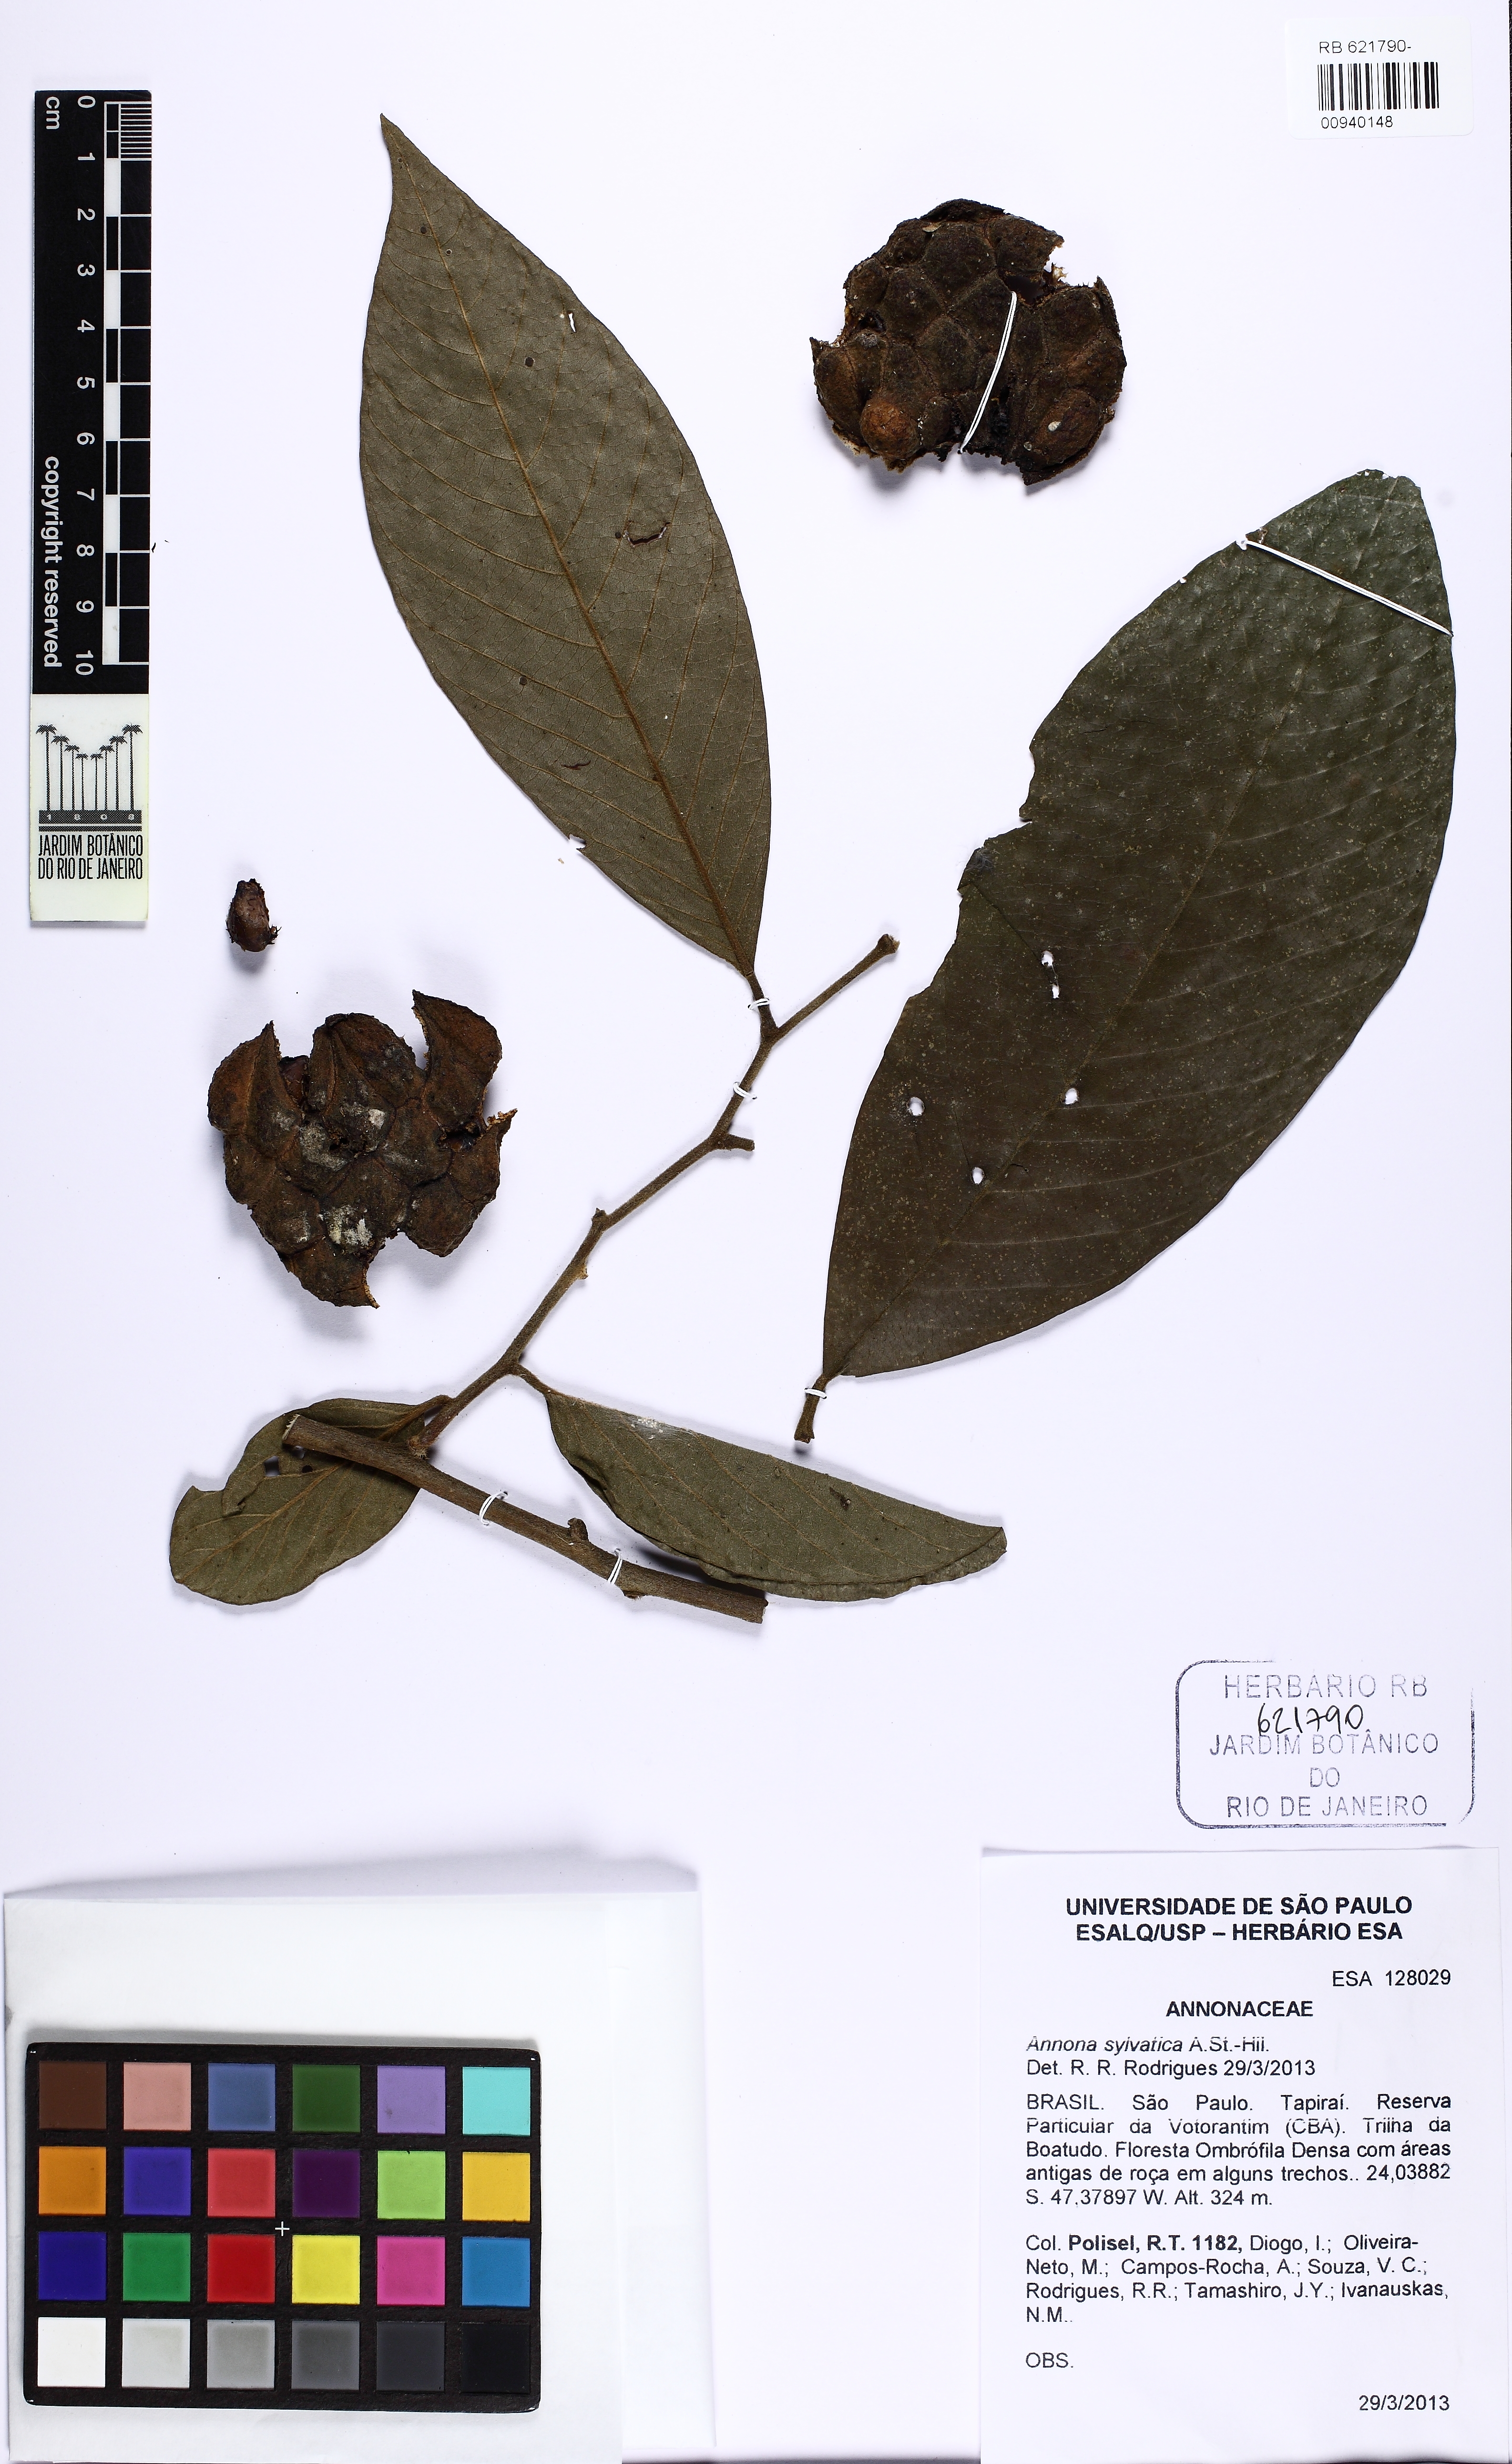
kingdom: Plantae
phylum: Tracheophyta
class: Magnoliopsida
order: Magnoliales
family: Annonaceae
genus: Annona
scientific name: Annona sylvatica
